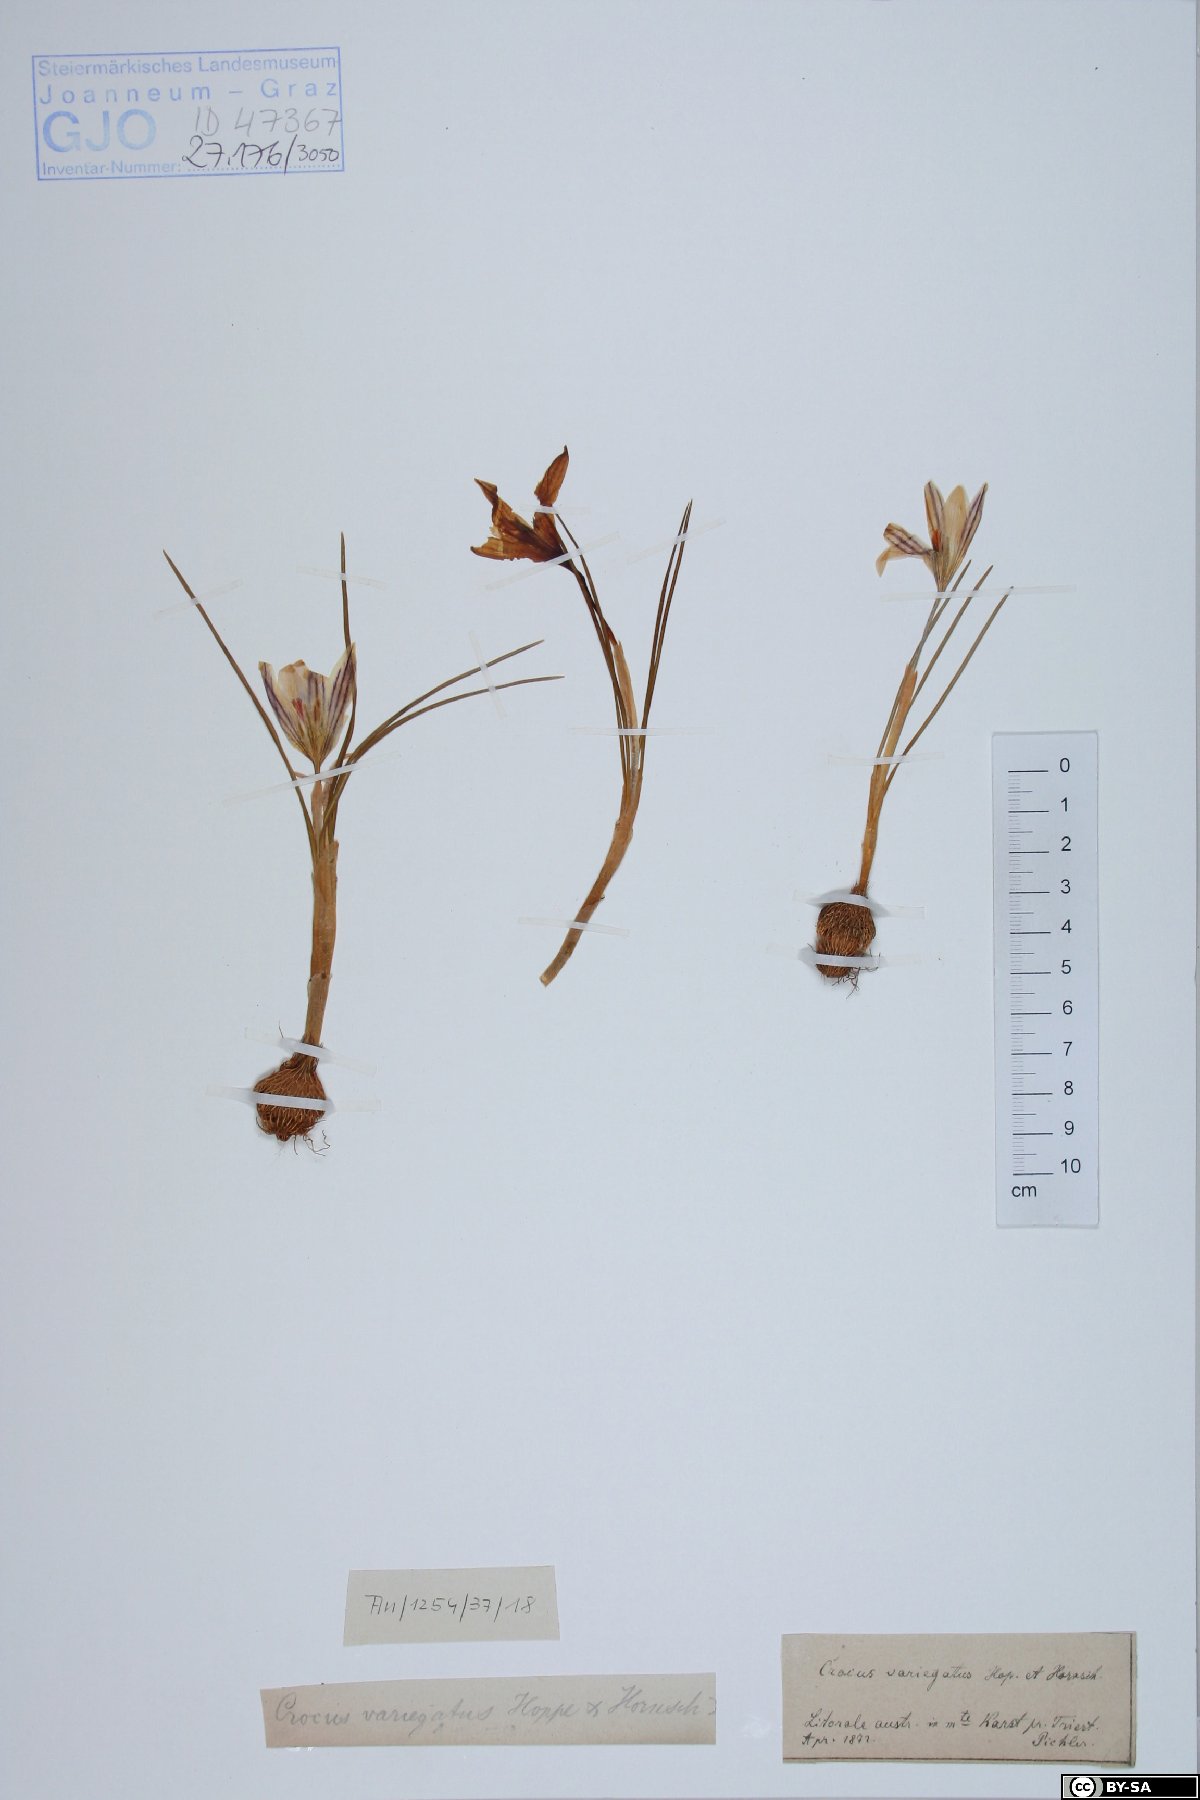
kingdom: Plantae
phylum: Tracheophyta
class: Liliopsida
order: Asparagales
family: Iridaceae
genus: Crocus
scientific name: Crocus variegatus
